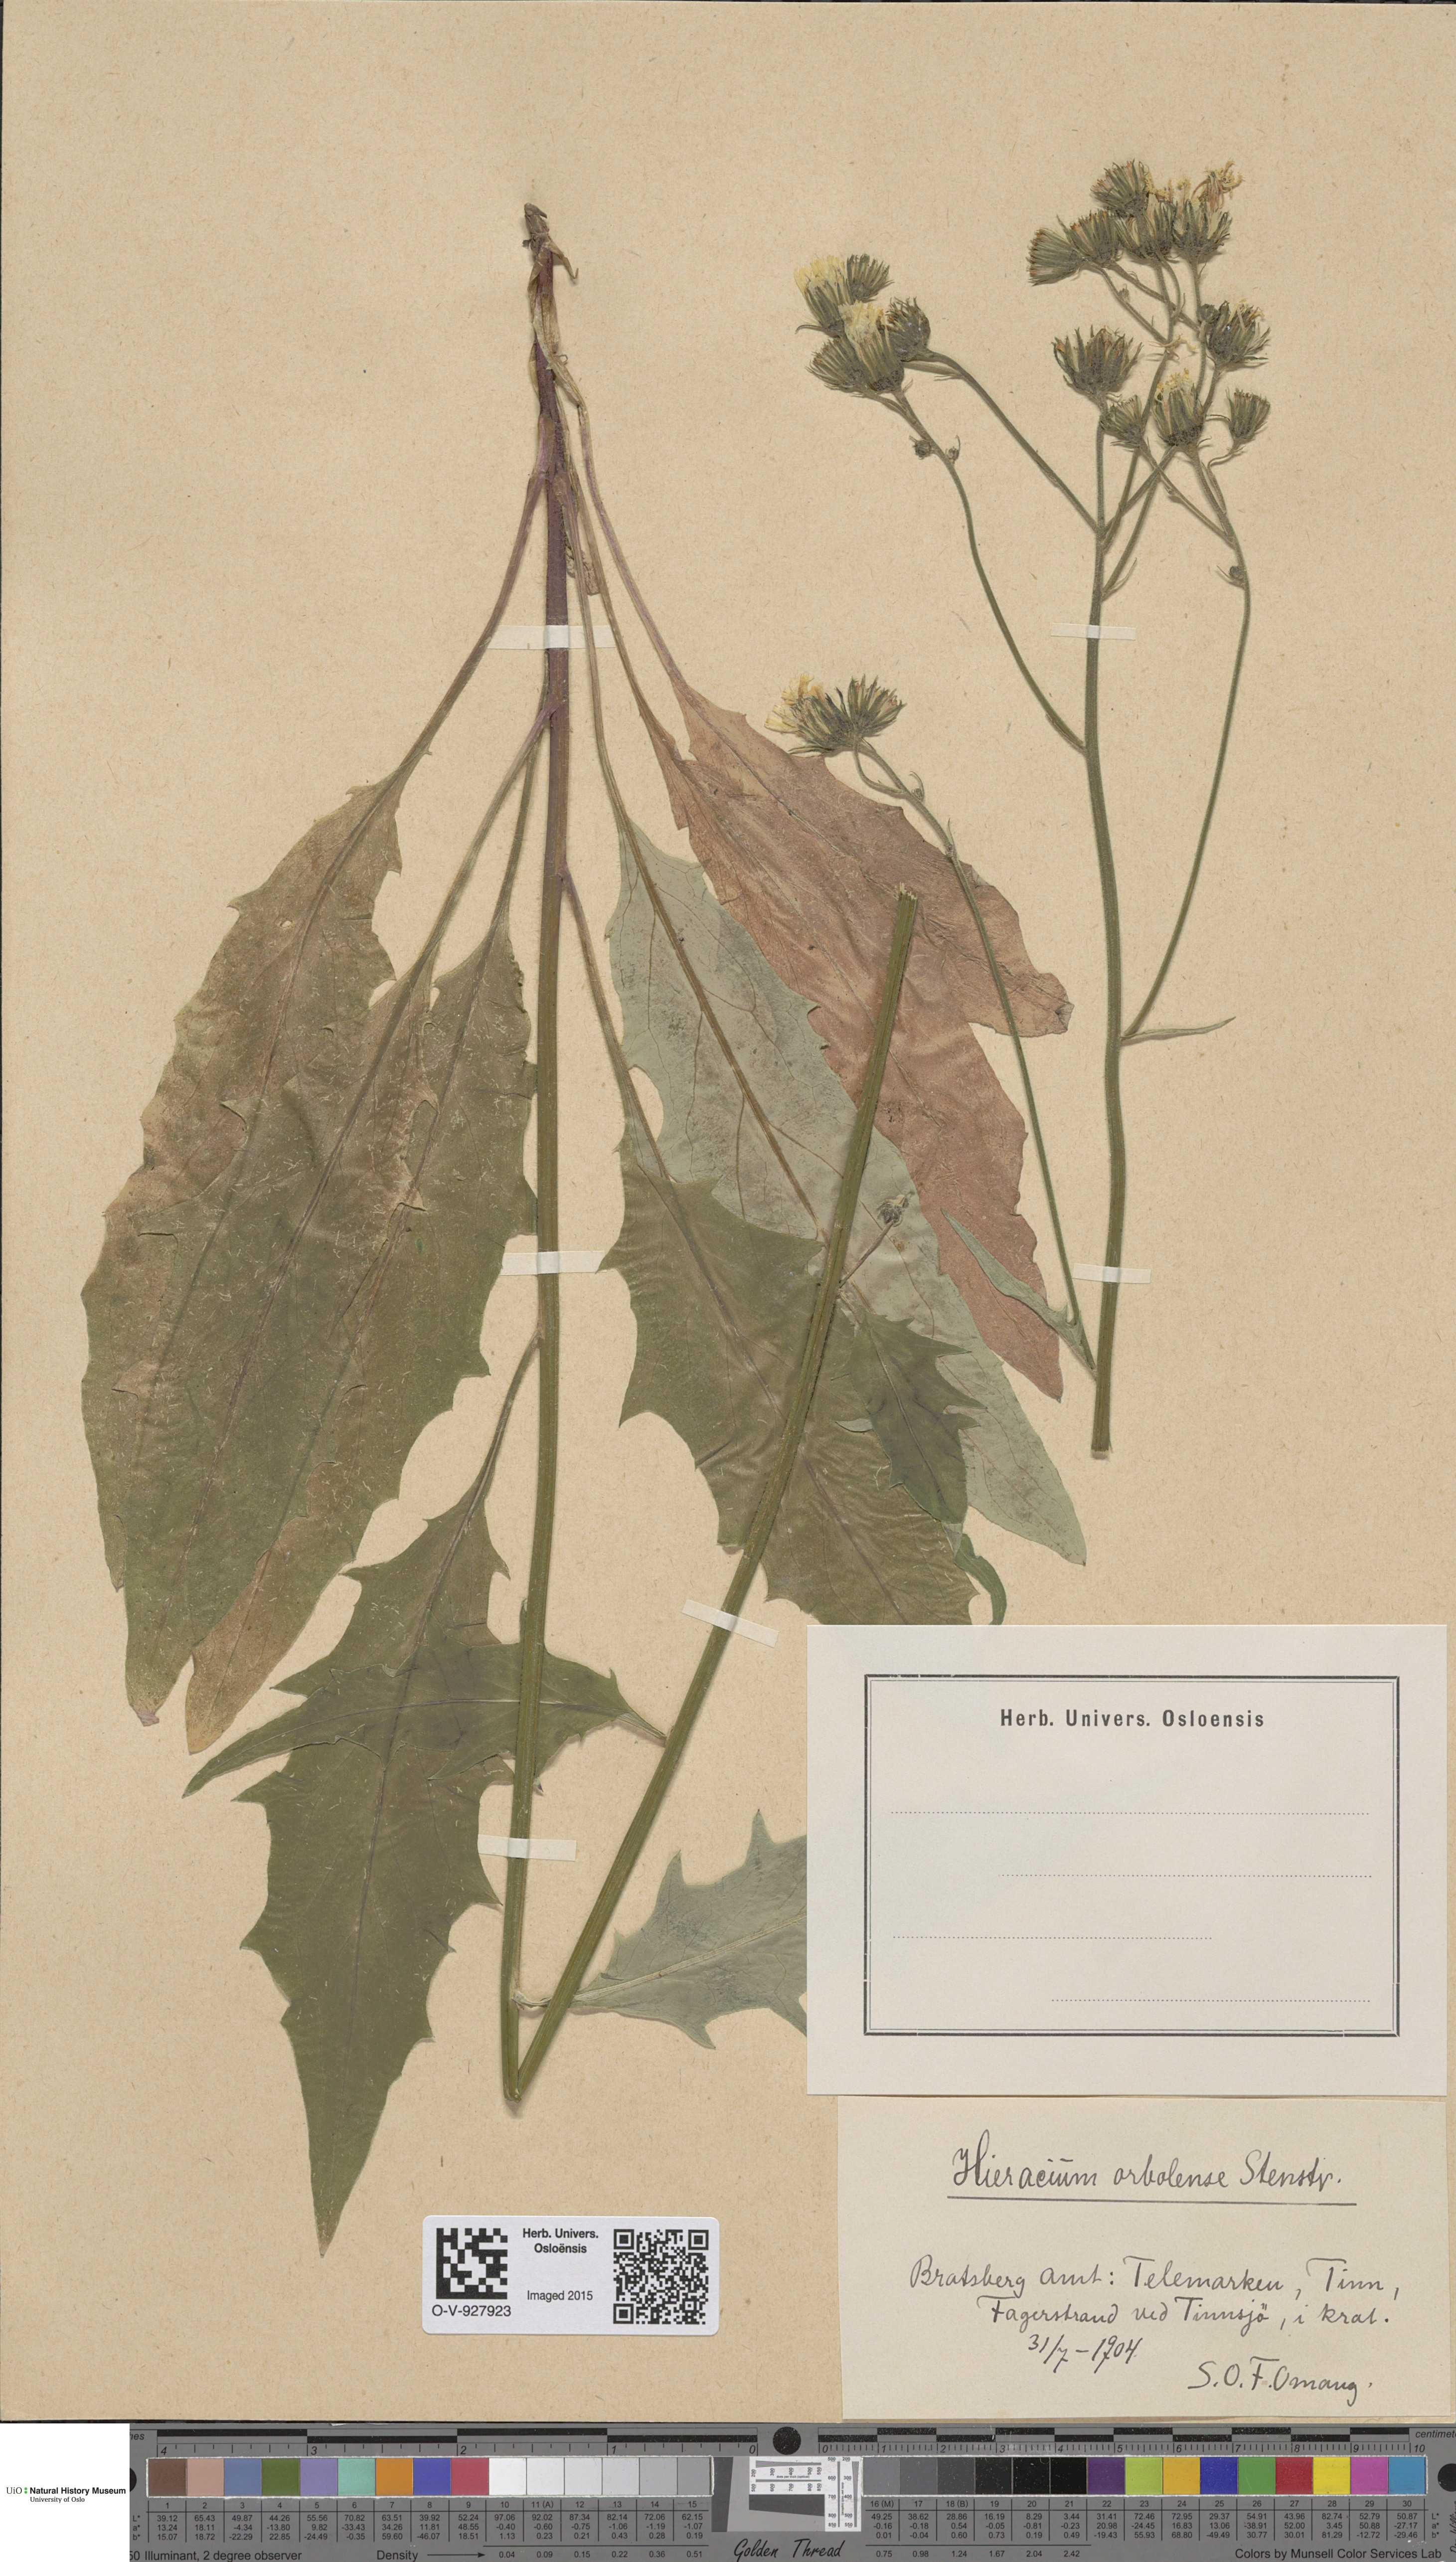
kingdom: Plantae
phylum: Tracheophyta
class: Magnoliopsida
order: Asterales
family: Asteraceae
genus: Hieracium
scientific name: Hieracium orbolense
